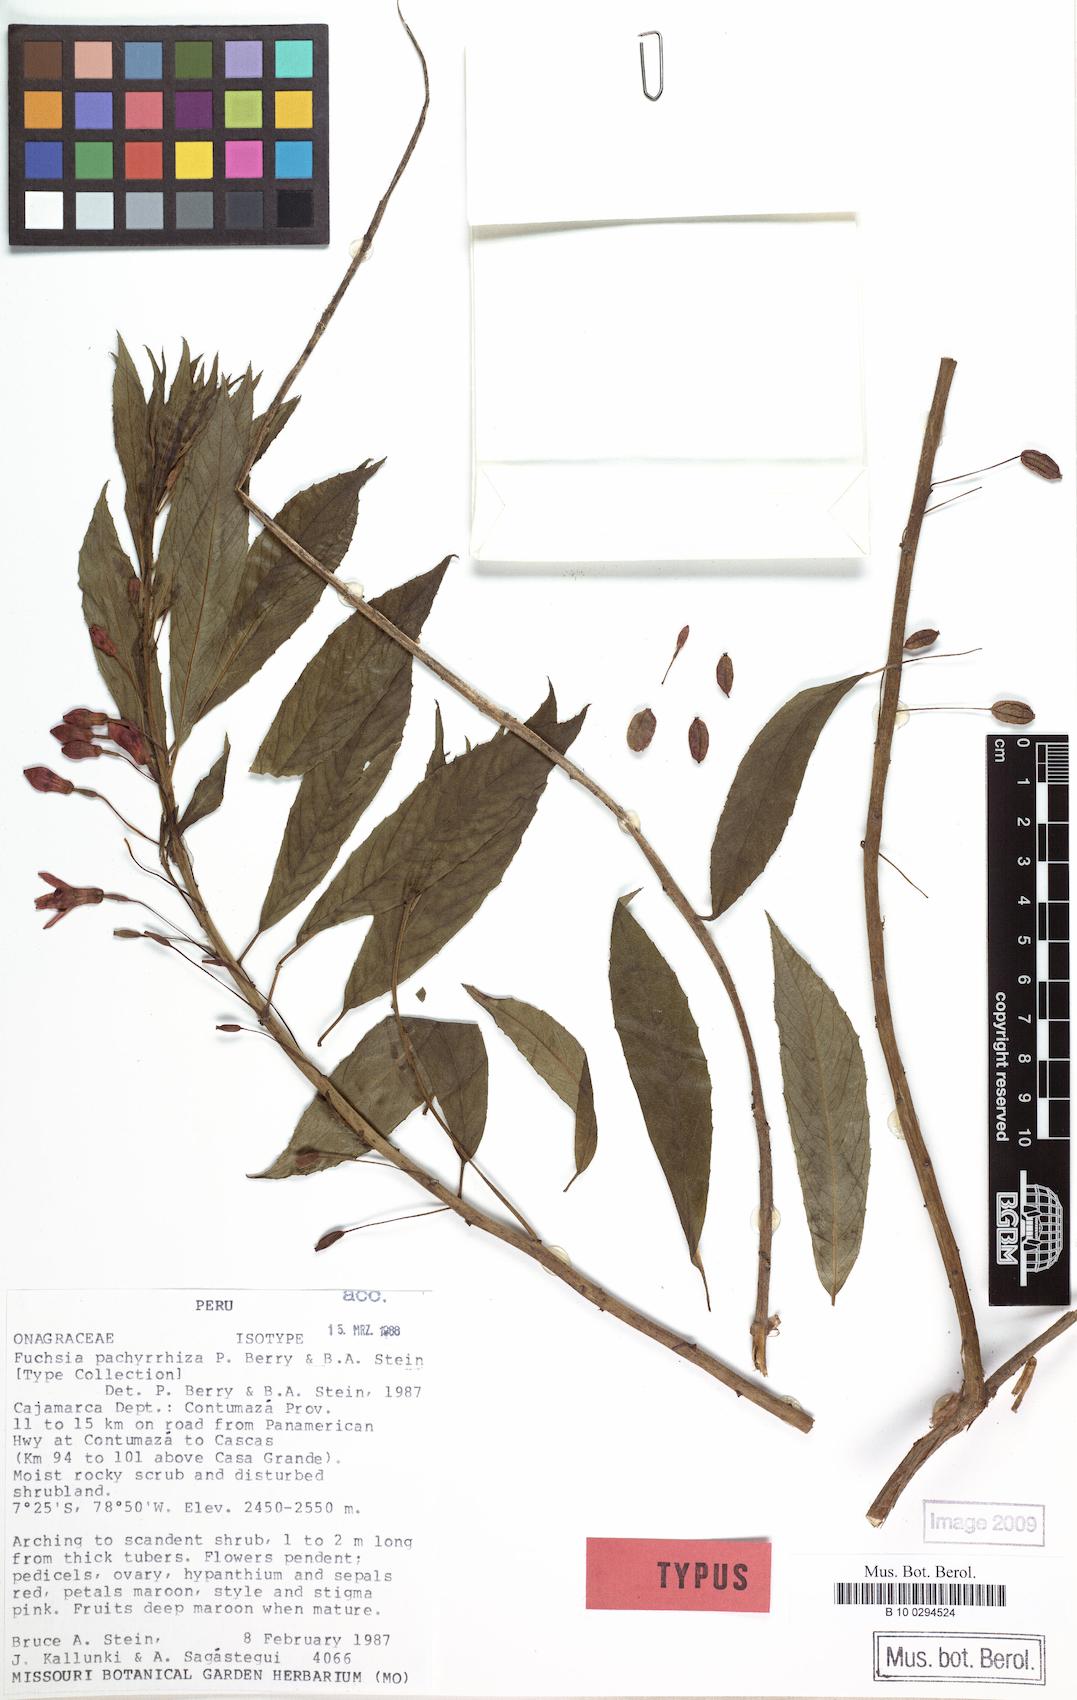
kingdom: Plantae
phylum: Tracheophyta
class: Magnoliopsida
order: Myrtales
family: Onagraceae
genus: Fuchsia
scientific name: Fuchsia pachyrrhiza
